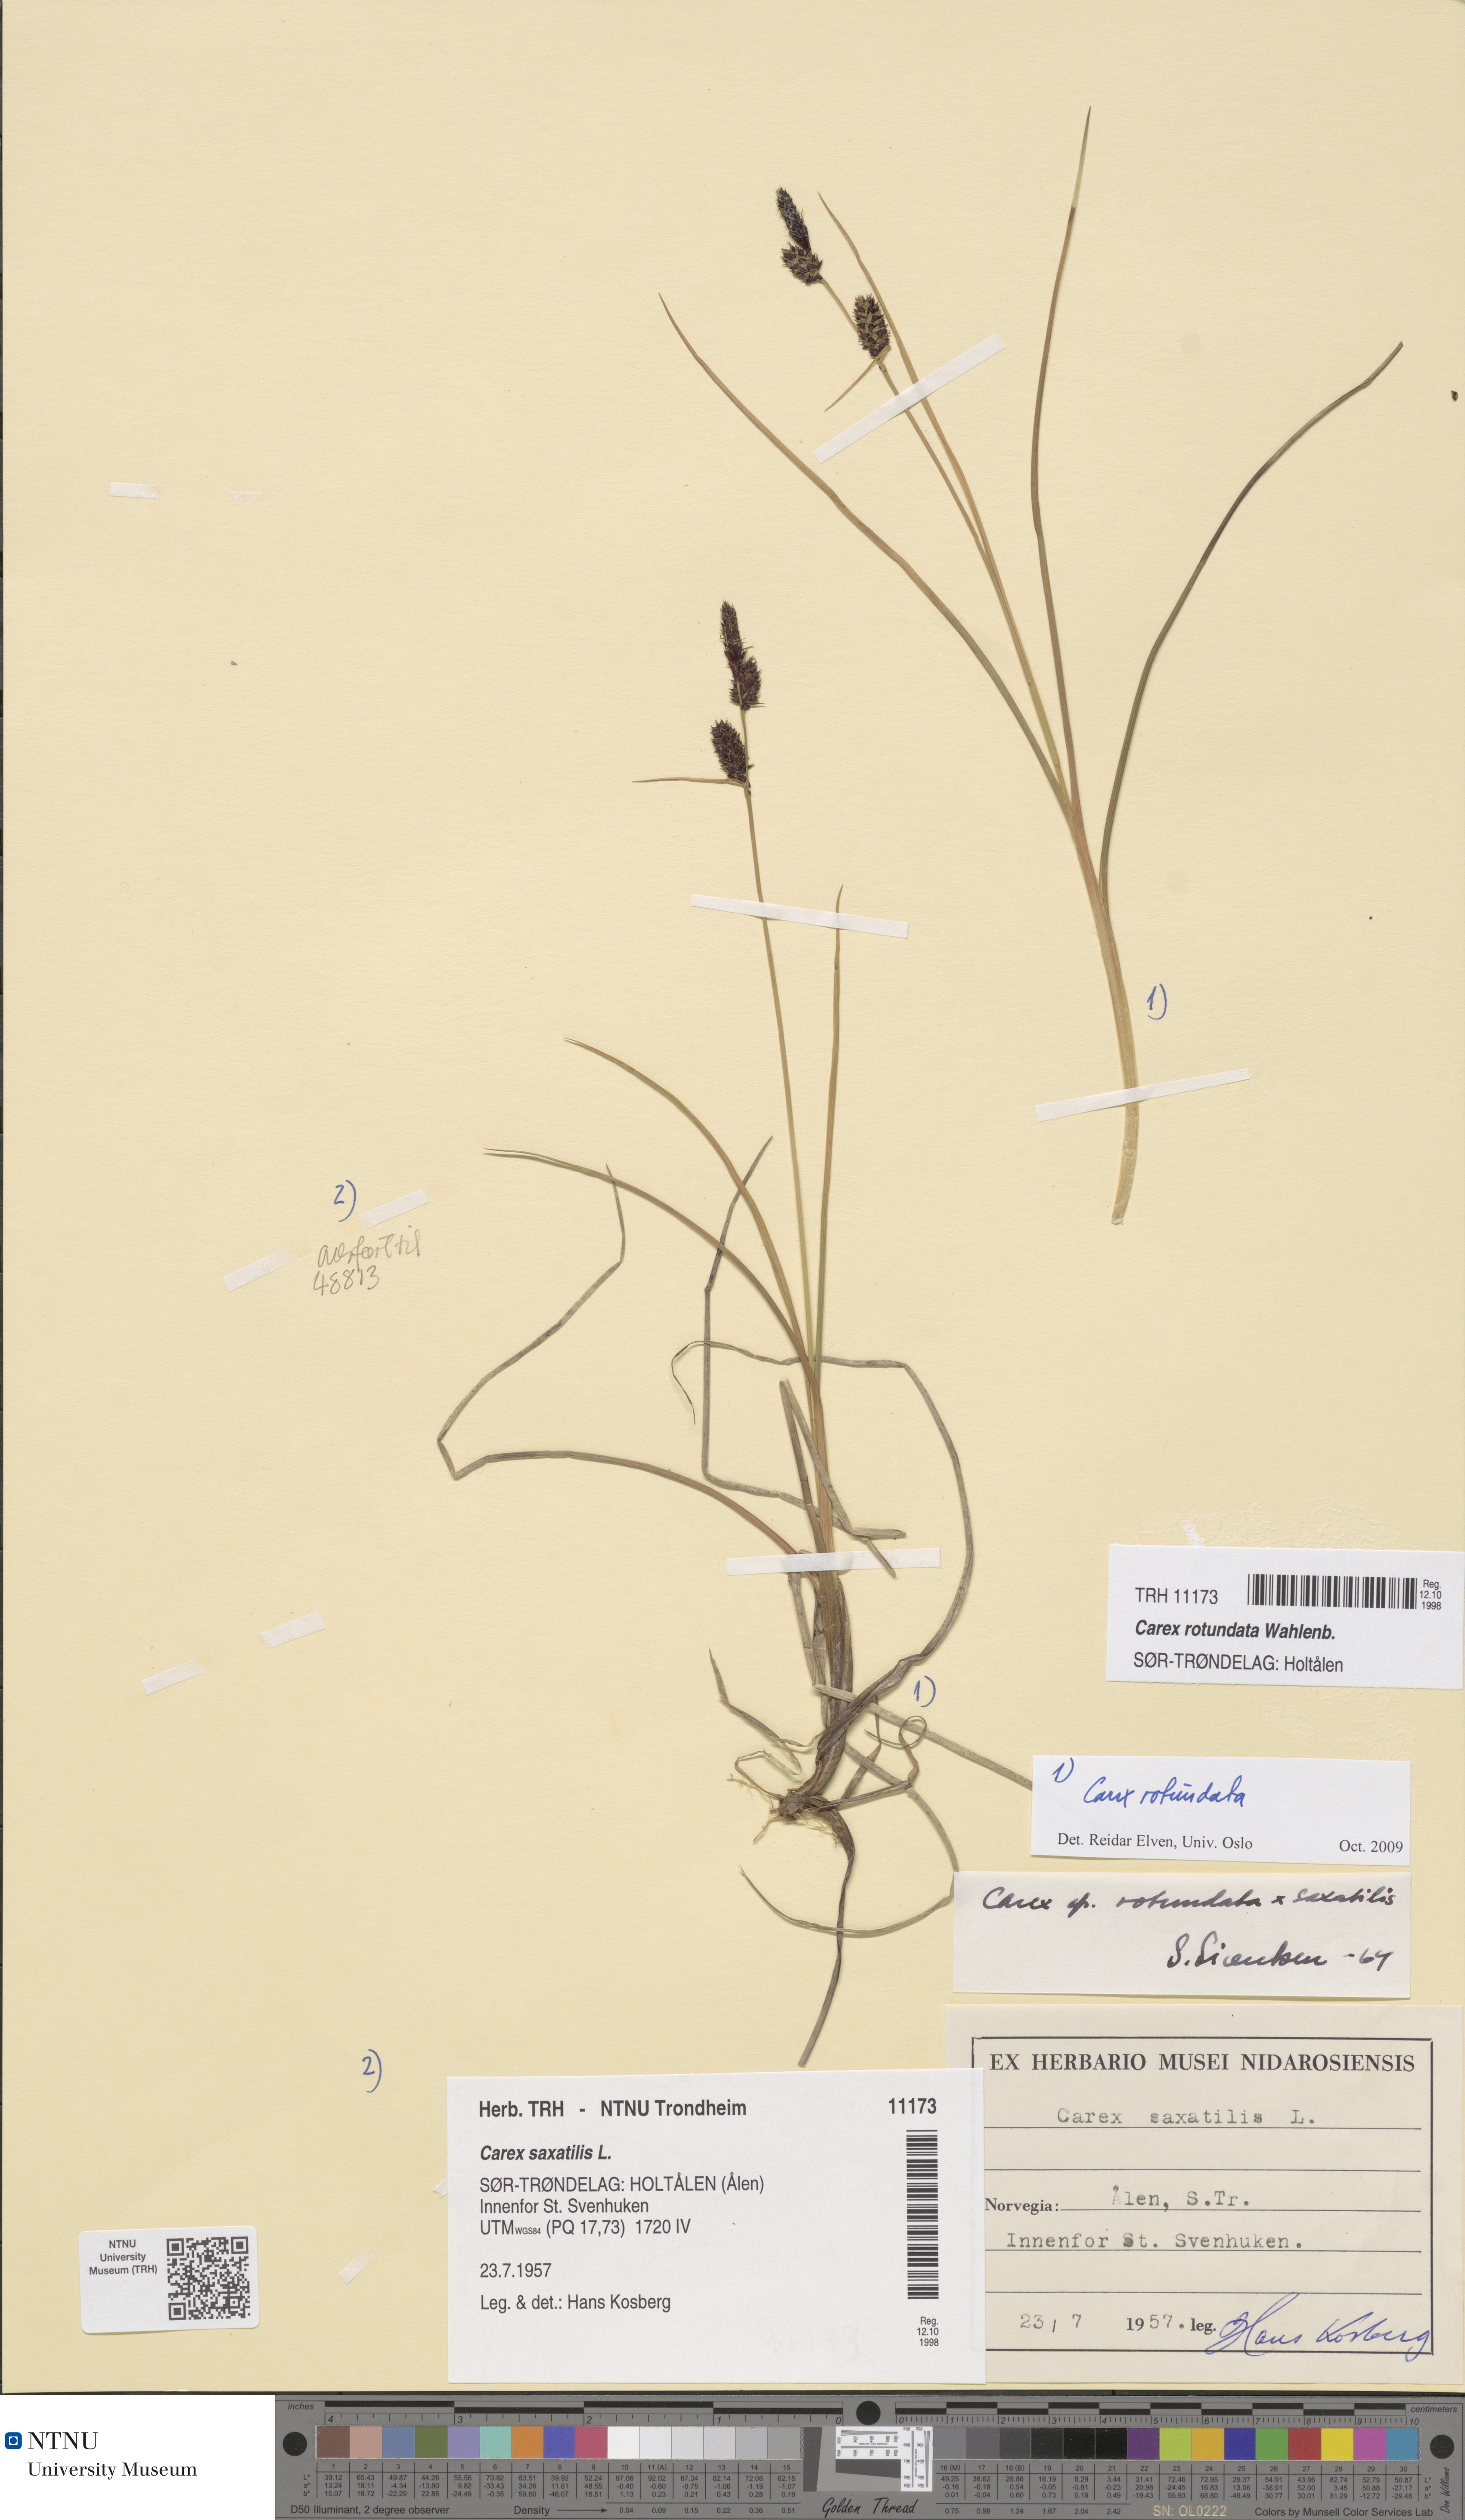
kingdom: Plantae
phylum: Tracheophyta
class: Liliopsida
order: Poales
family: Cyperaceae
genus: Carex
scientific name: Carex rotundata
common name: Round-fruited sedge
